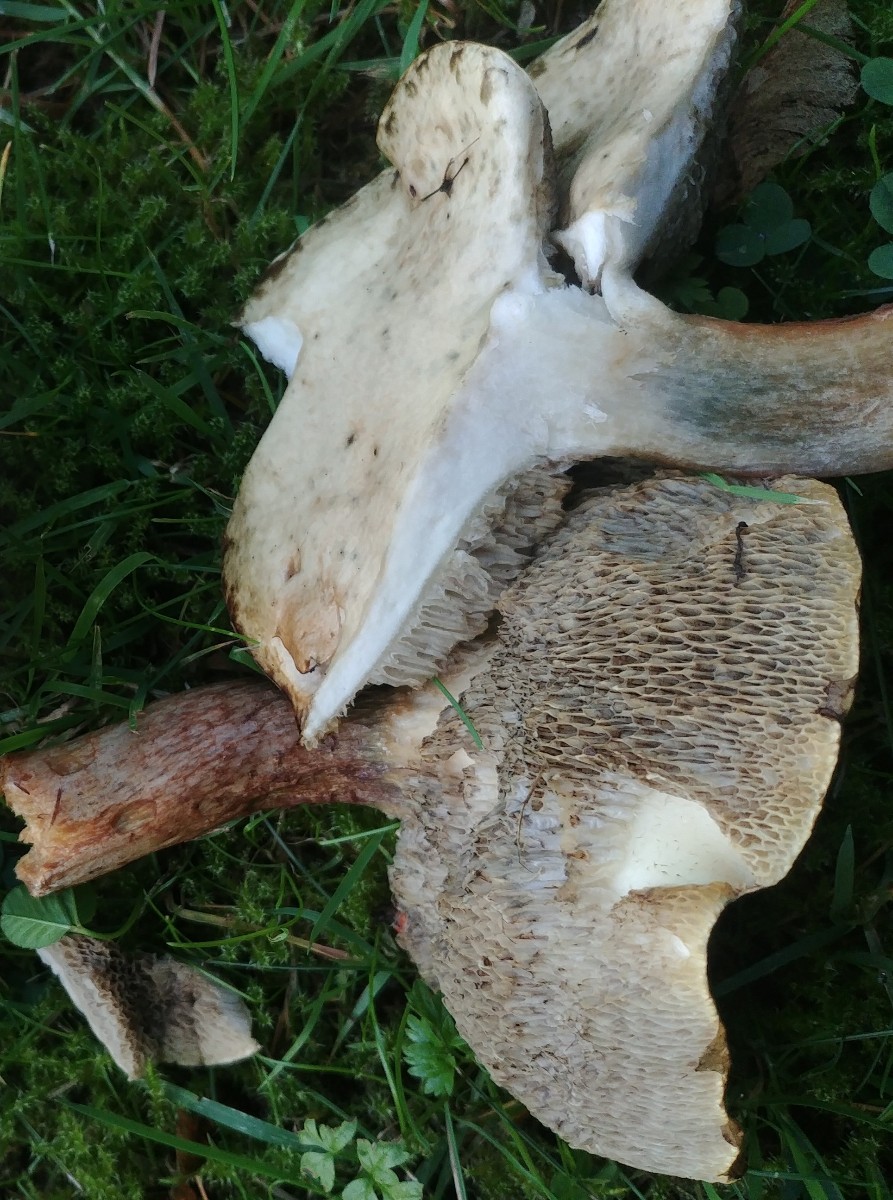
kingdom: Fungi
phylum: Basidiomycota
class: Agaricomycetes
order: Boletales
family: Suillaceae
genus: Suillus
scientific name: Suillus viscidus
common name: olivengrå slimrørhat
